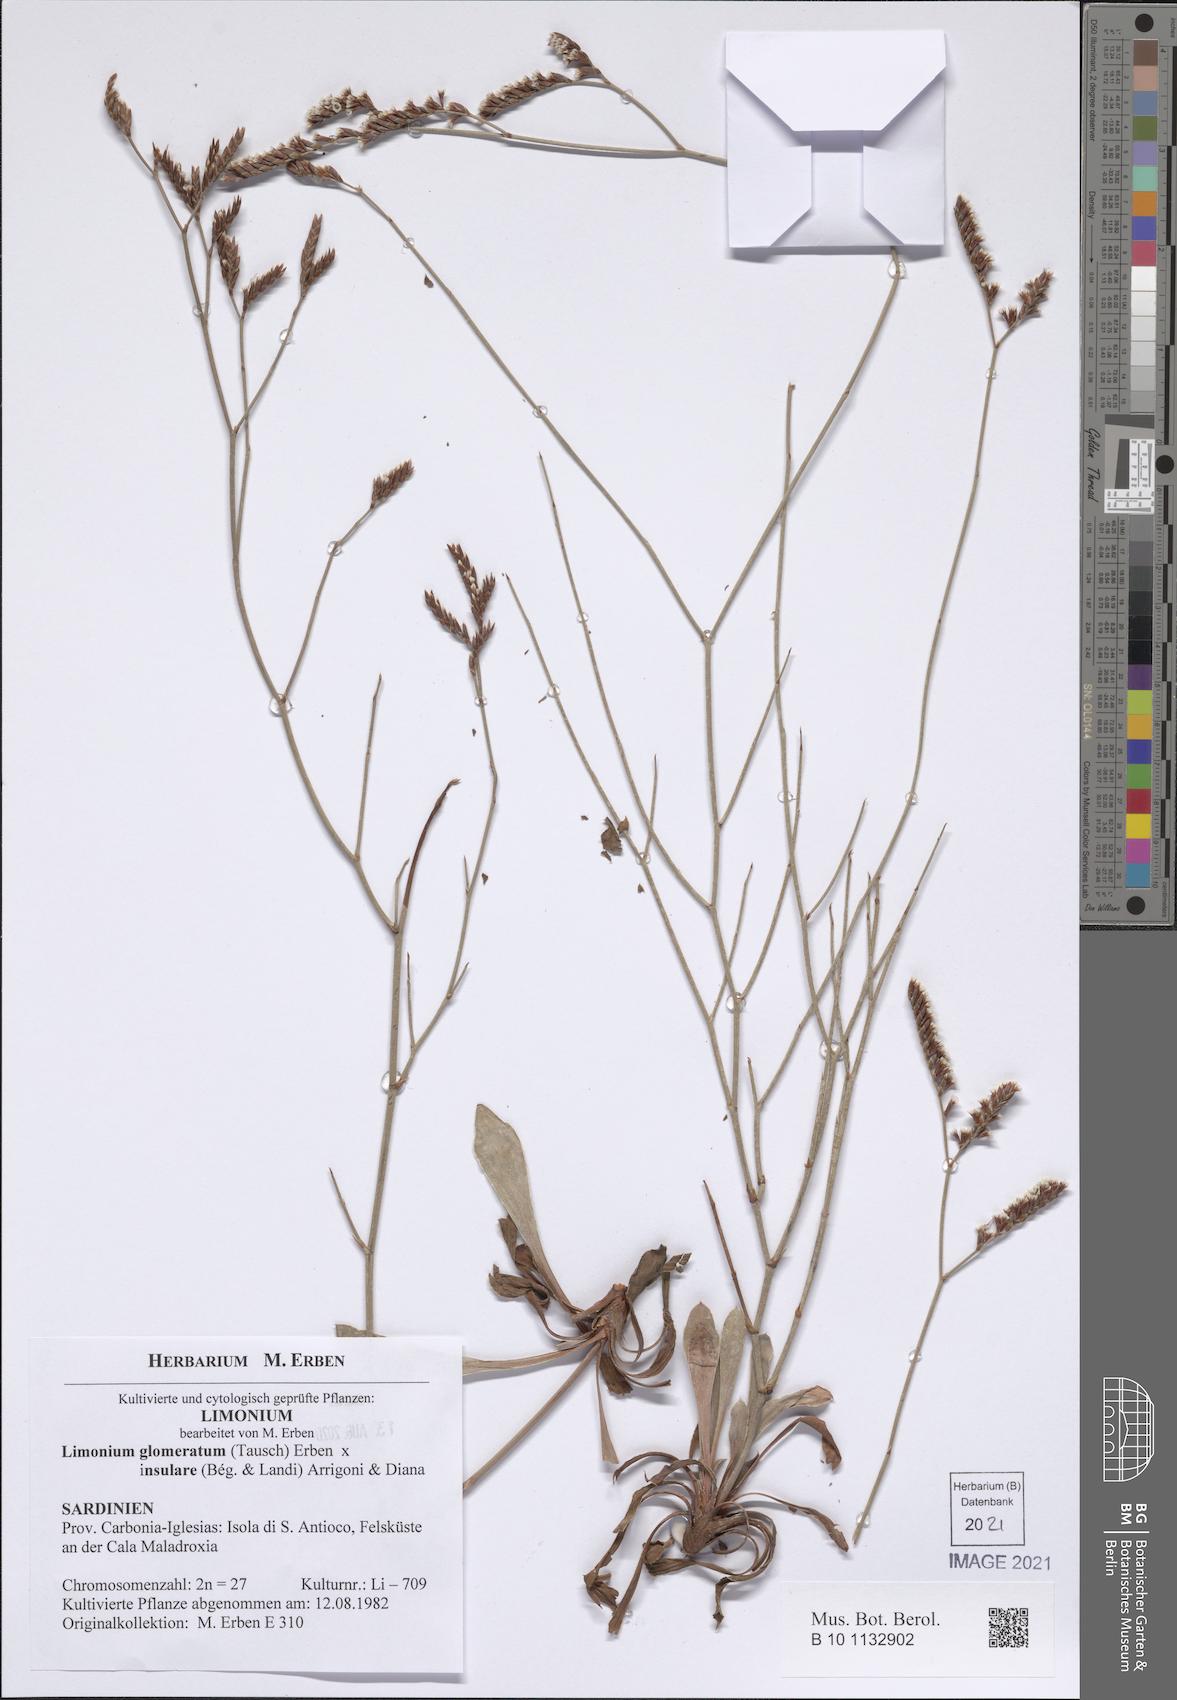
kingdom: Plantae
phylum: Tracheophyta
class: Magnoliopsida
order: Caryophyllales
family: Plumbaginaceae
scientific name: Plumbaginaceae
